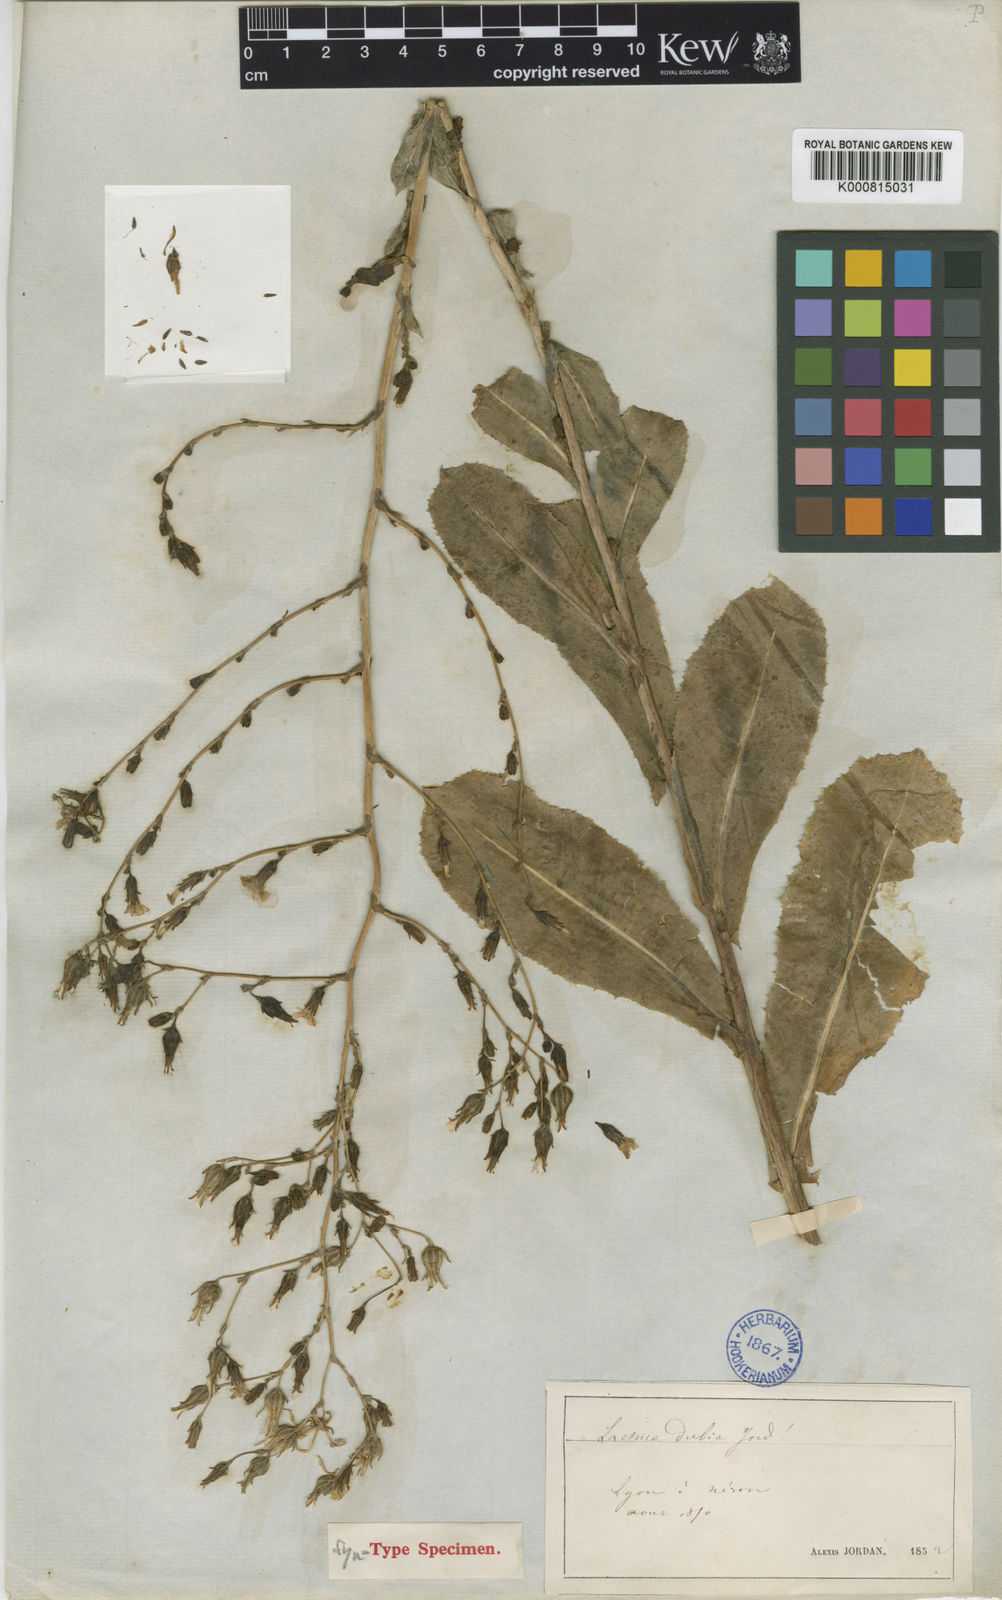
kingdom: Plantae
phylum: Tracheophyta
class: Magnoliopsida
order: Asterales
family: Asteraceae
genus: Lactuca
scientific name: Lactuca serriola
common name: Prickly lettuce
